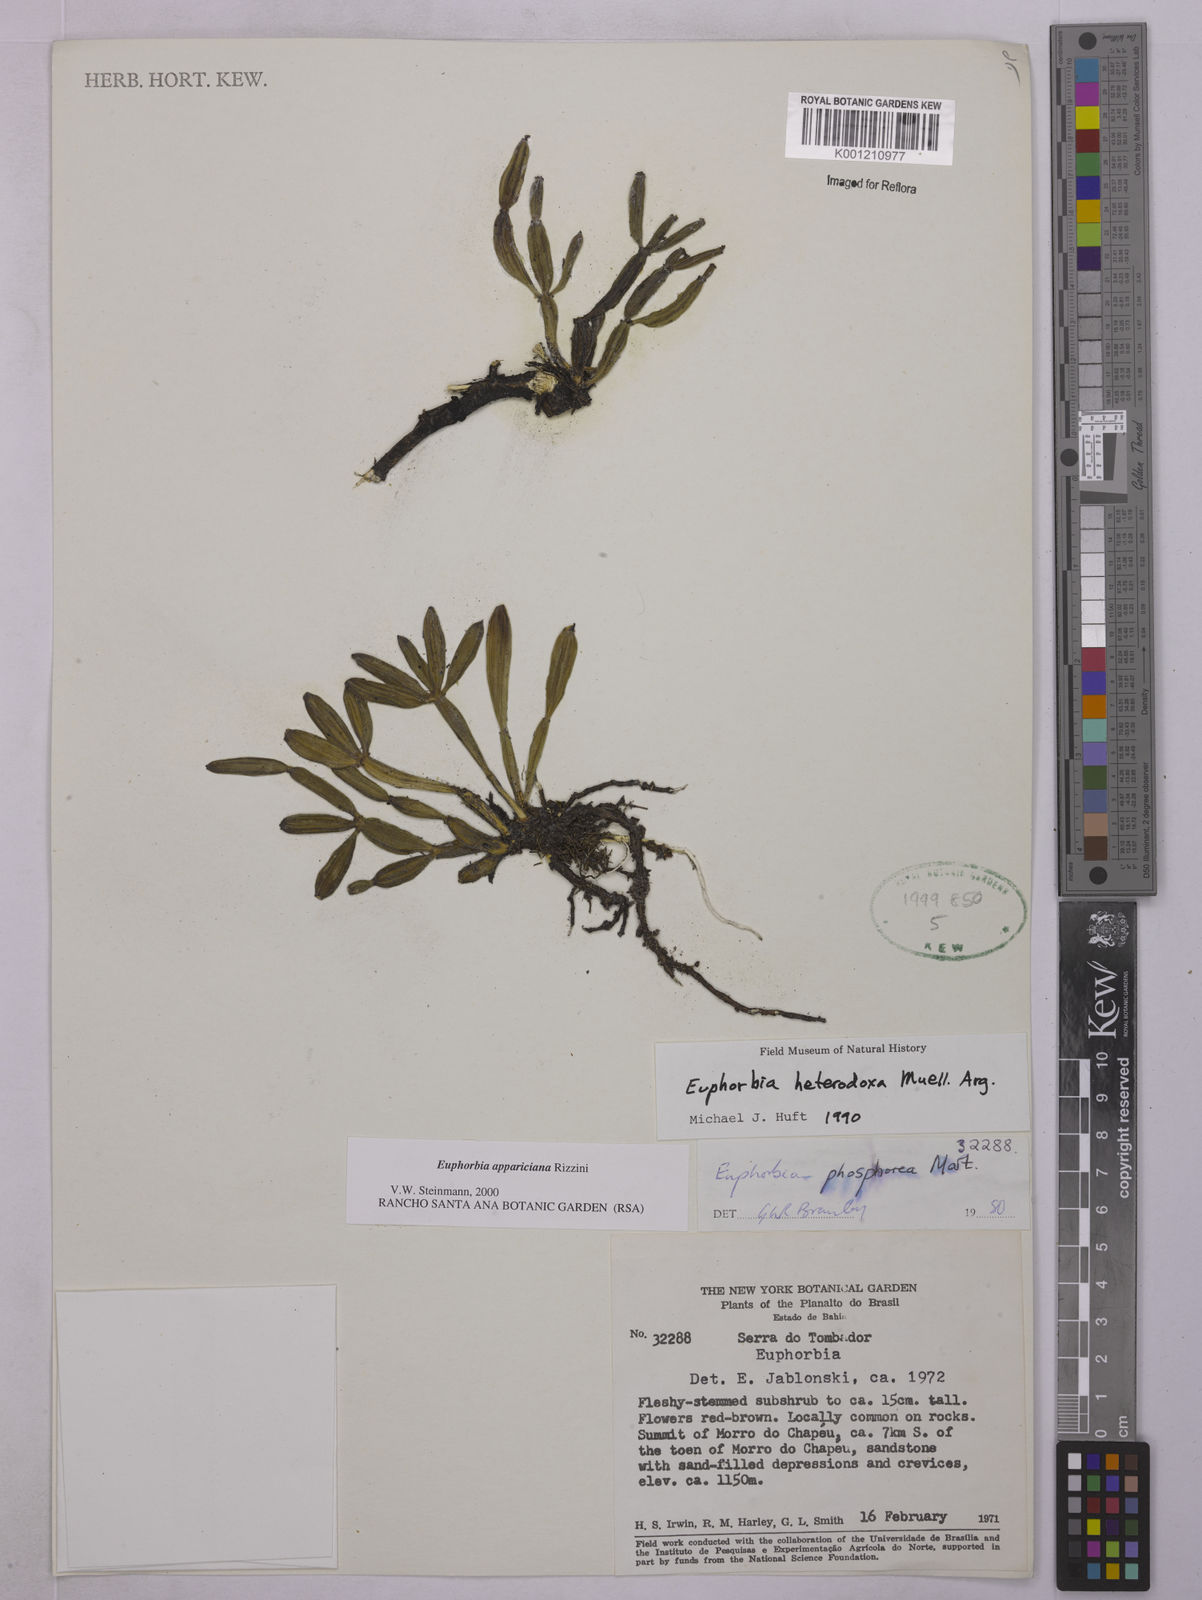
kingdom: Plantae
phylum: Tracheophyta
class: Magnoliopsida
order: Malpighiales
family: Euphorbiaceae
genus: Euphorbia
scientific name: Euphorbia appariciana
